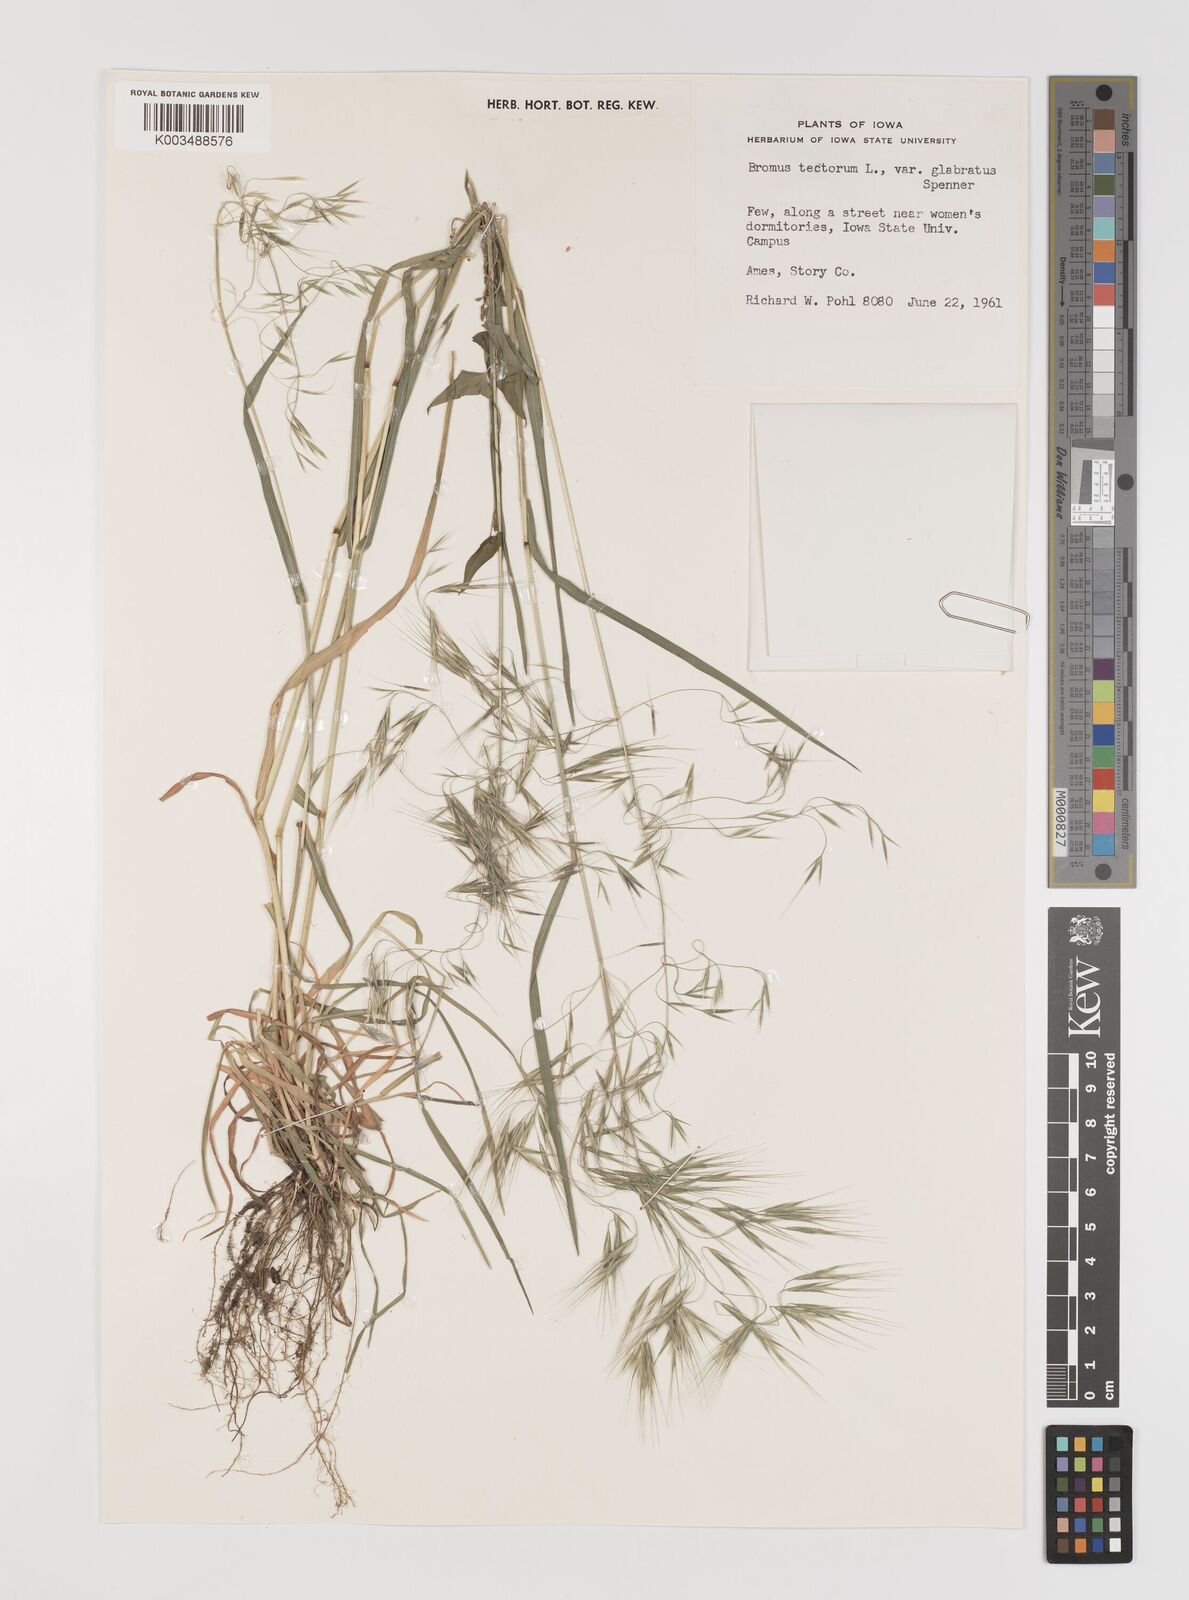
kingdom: Plantae
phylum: Tracheophyta
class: Liliopsida
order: Poales
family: Poaceae
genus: Bromus
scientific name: Bromus tectorum
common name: Cheatgrass
